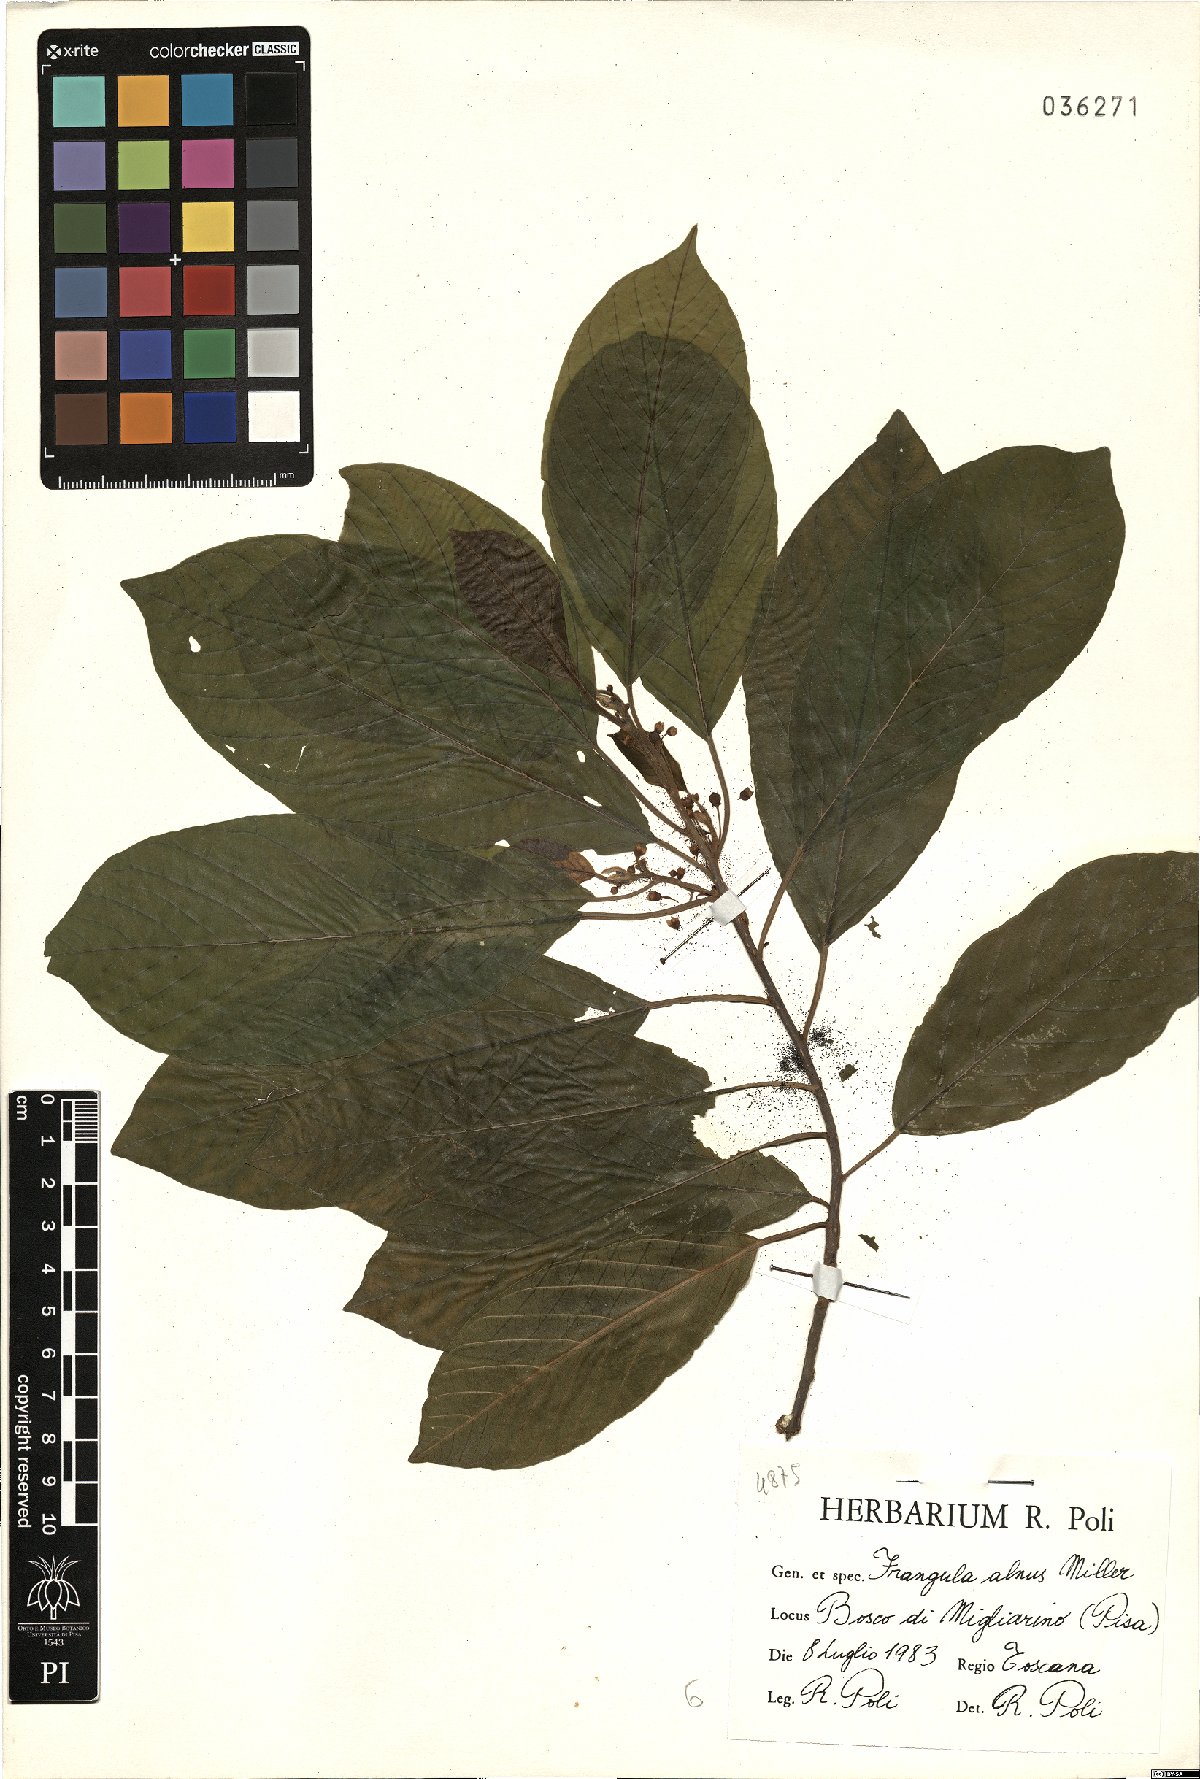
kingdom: Plantae
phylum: Tracheophyta
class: Magnoliopsida
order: Rosales
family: Rhamnaceae
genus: Frangula
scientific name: Frangula alnus
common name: Alder buckthorn
